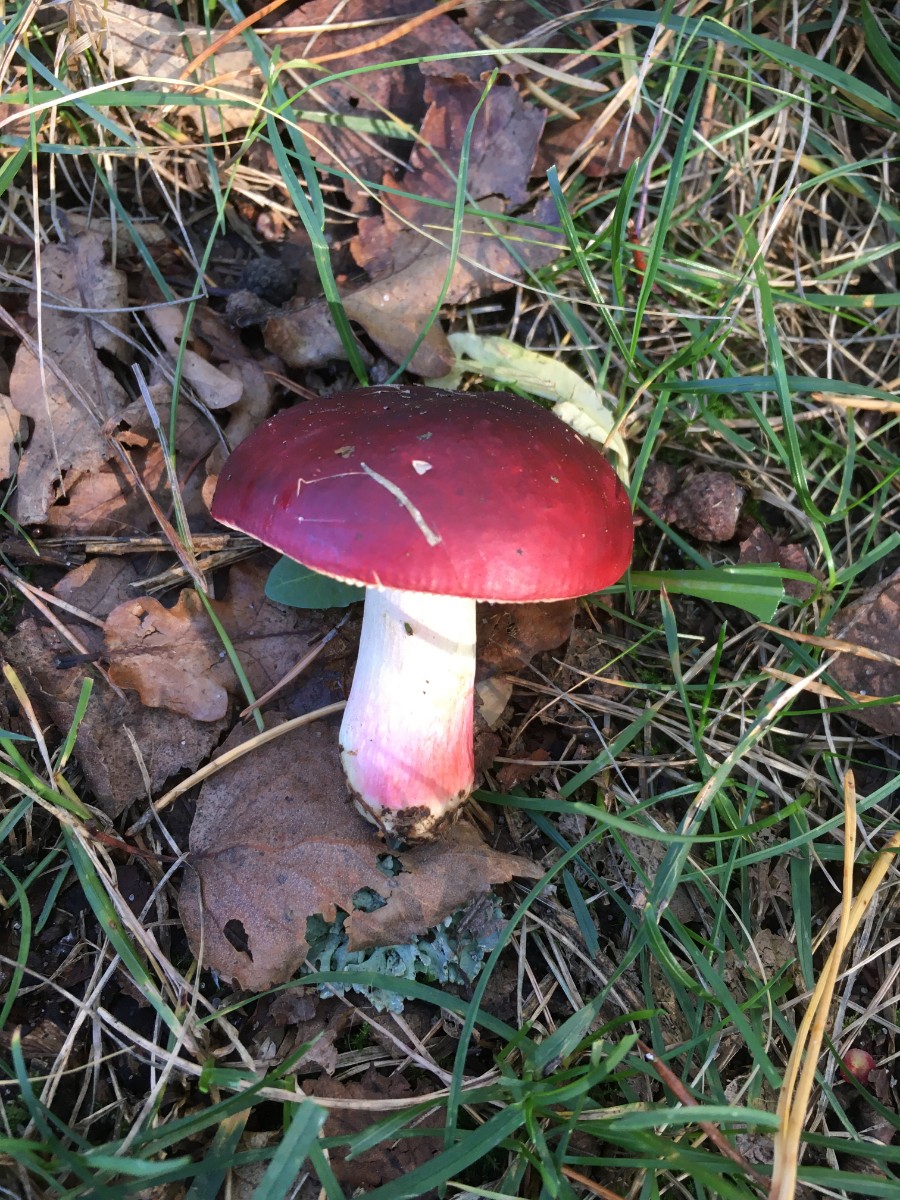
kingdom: Fungi
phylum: Basidiomycota
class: Agaricomycetes
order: Russulales
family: Russulaceae
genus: Russula
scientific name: Russula xerampelina
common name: hummer-skørhat
